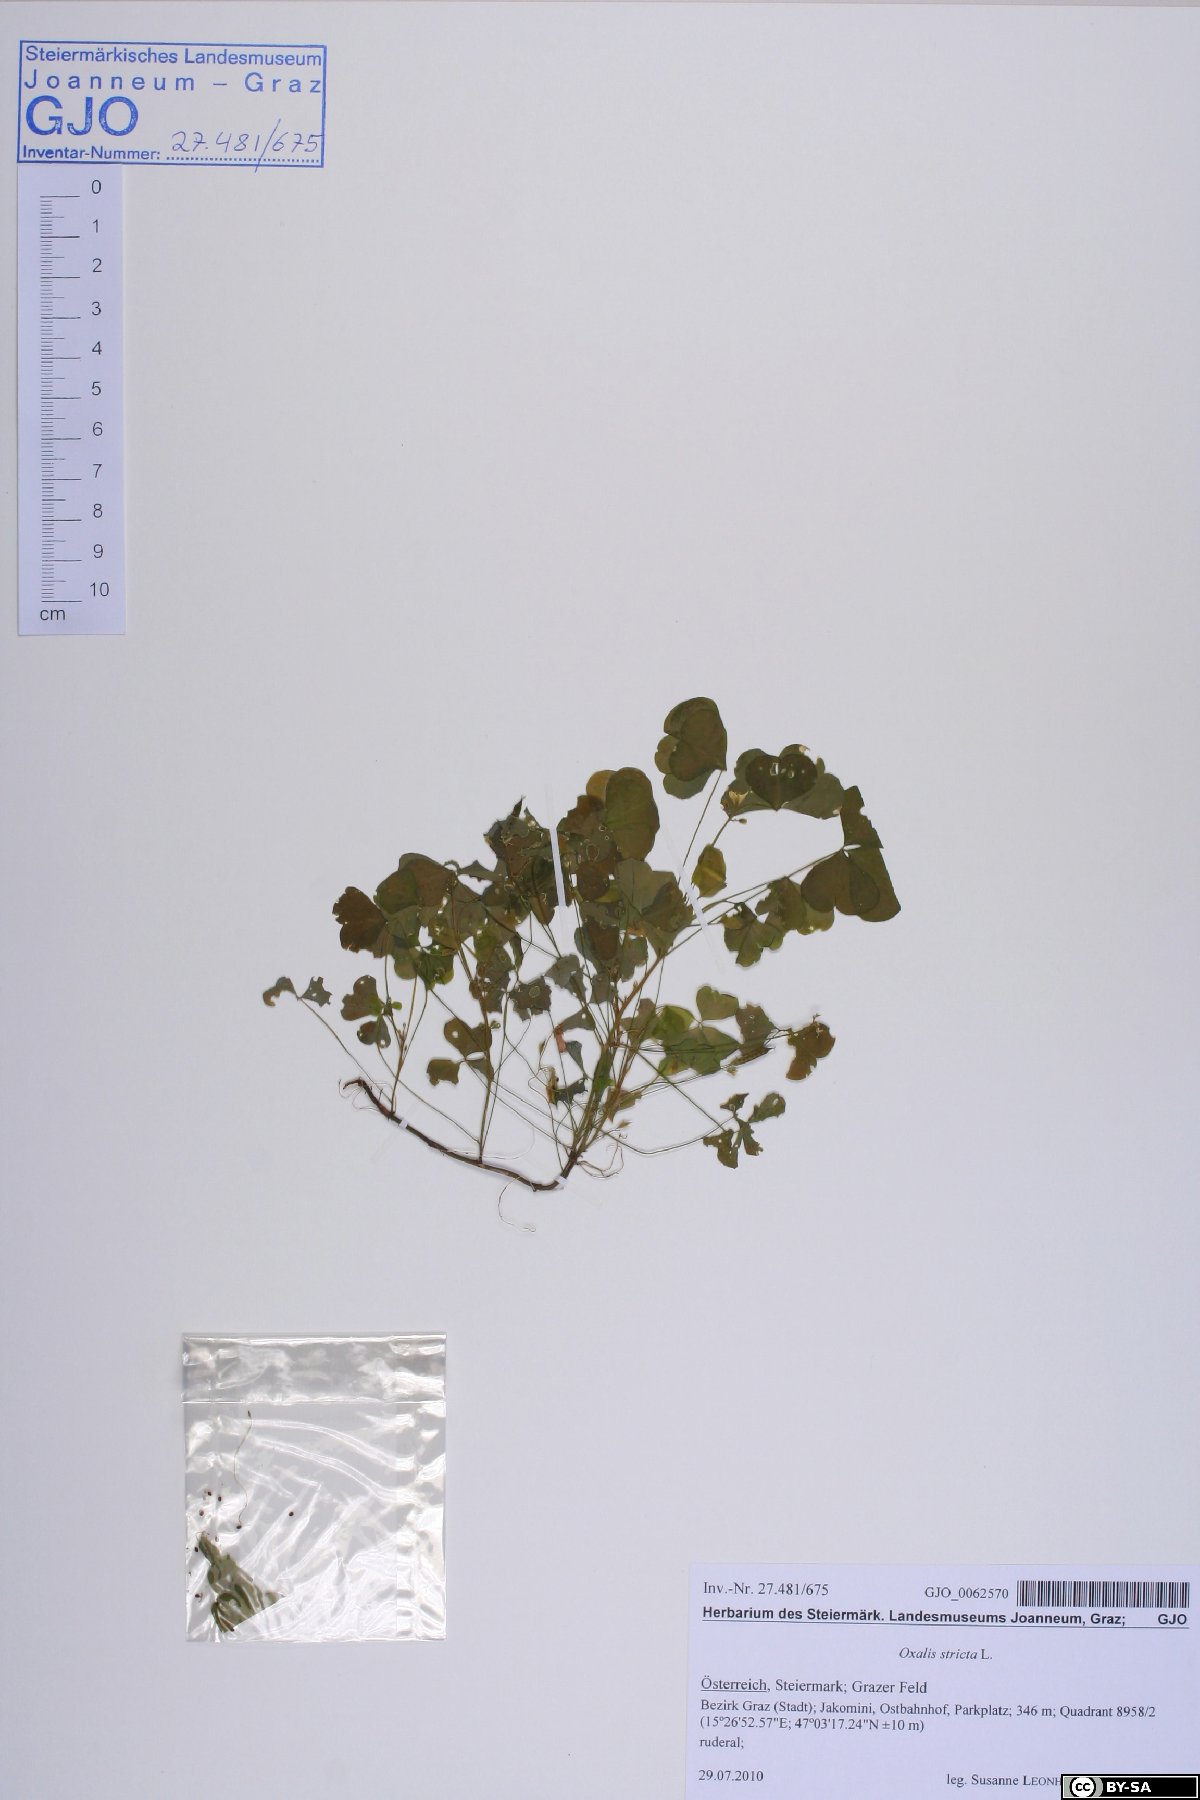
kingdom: Plantae
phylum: Tracheophyta
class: Magnoliopsida
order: Oxalidales
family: Oxalidaceae
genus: Oxalis
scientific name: Oxalis stricta
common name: Upright yellow-sorrel
